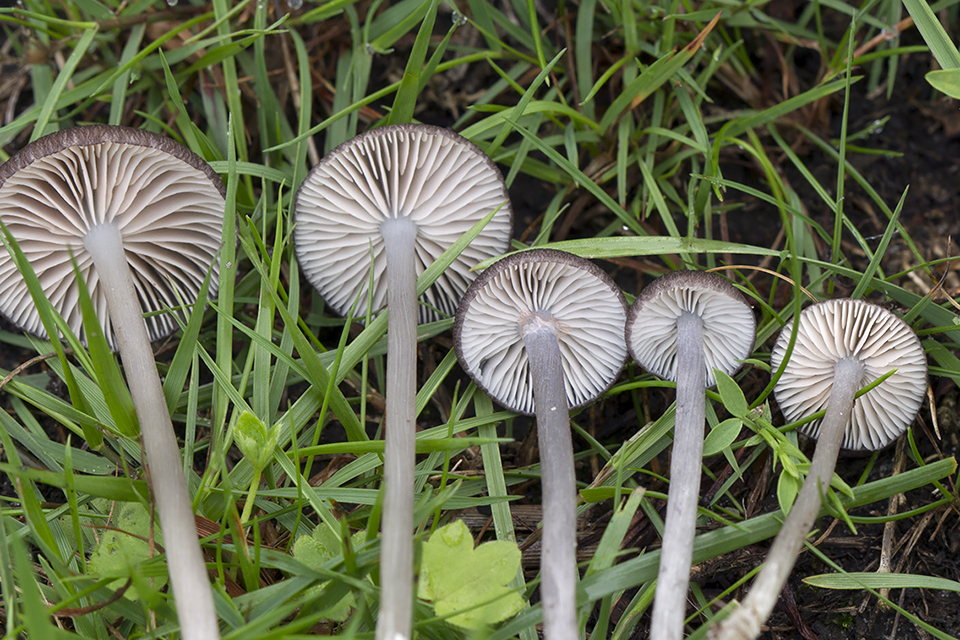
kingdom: Fungi
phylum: Basidiomycota
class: Agaricomycetes
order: Agaricales
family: Entolomataceae
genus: Entoloma
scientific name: Entoloma porphyrogriseum
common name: porfyrgrå rødblad
